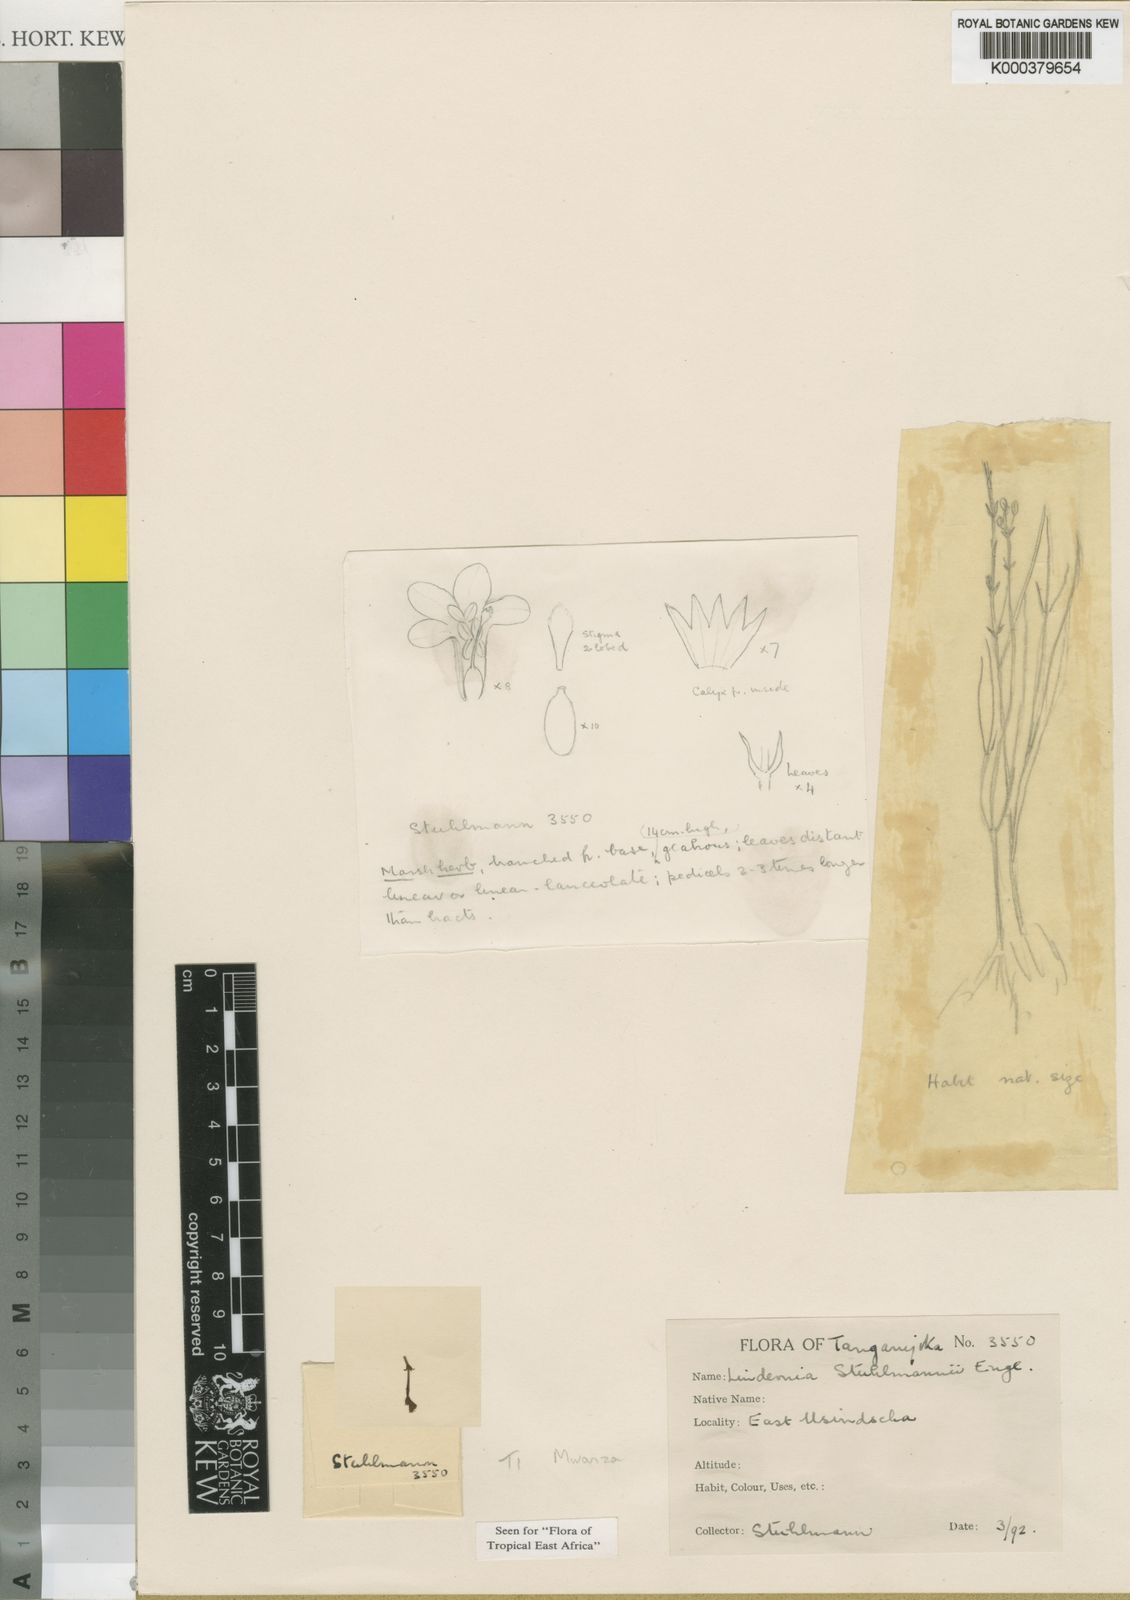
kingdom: Plantae
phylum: Tracheophyta
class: Magnoliopsida
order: Lamiales
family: Linderniaceae
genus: Craterostigma
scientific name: Craterostigma stuhlmannii
